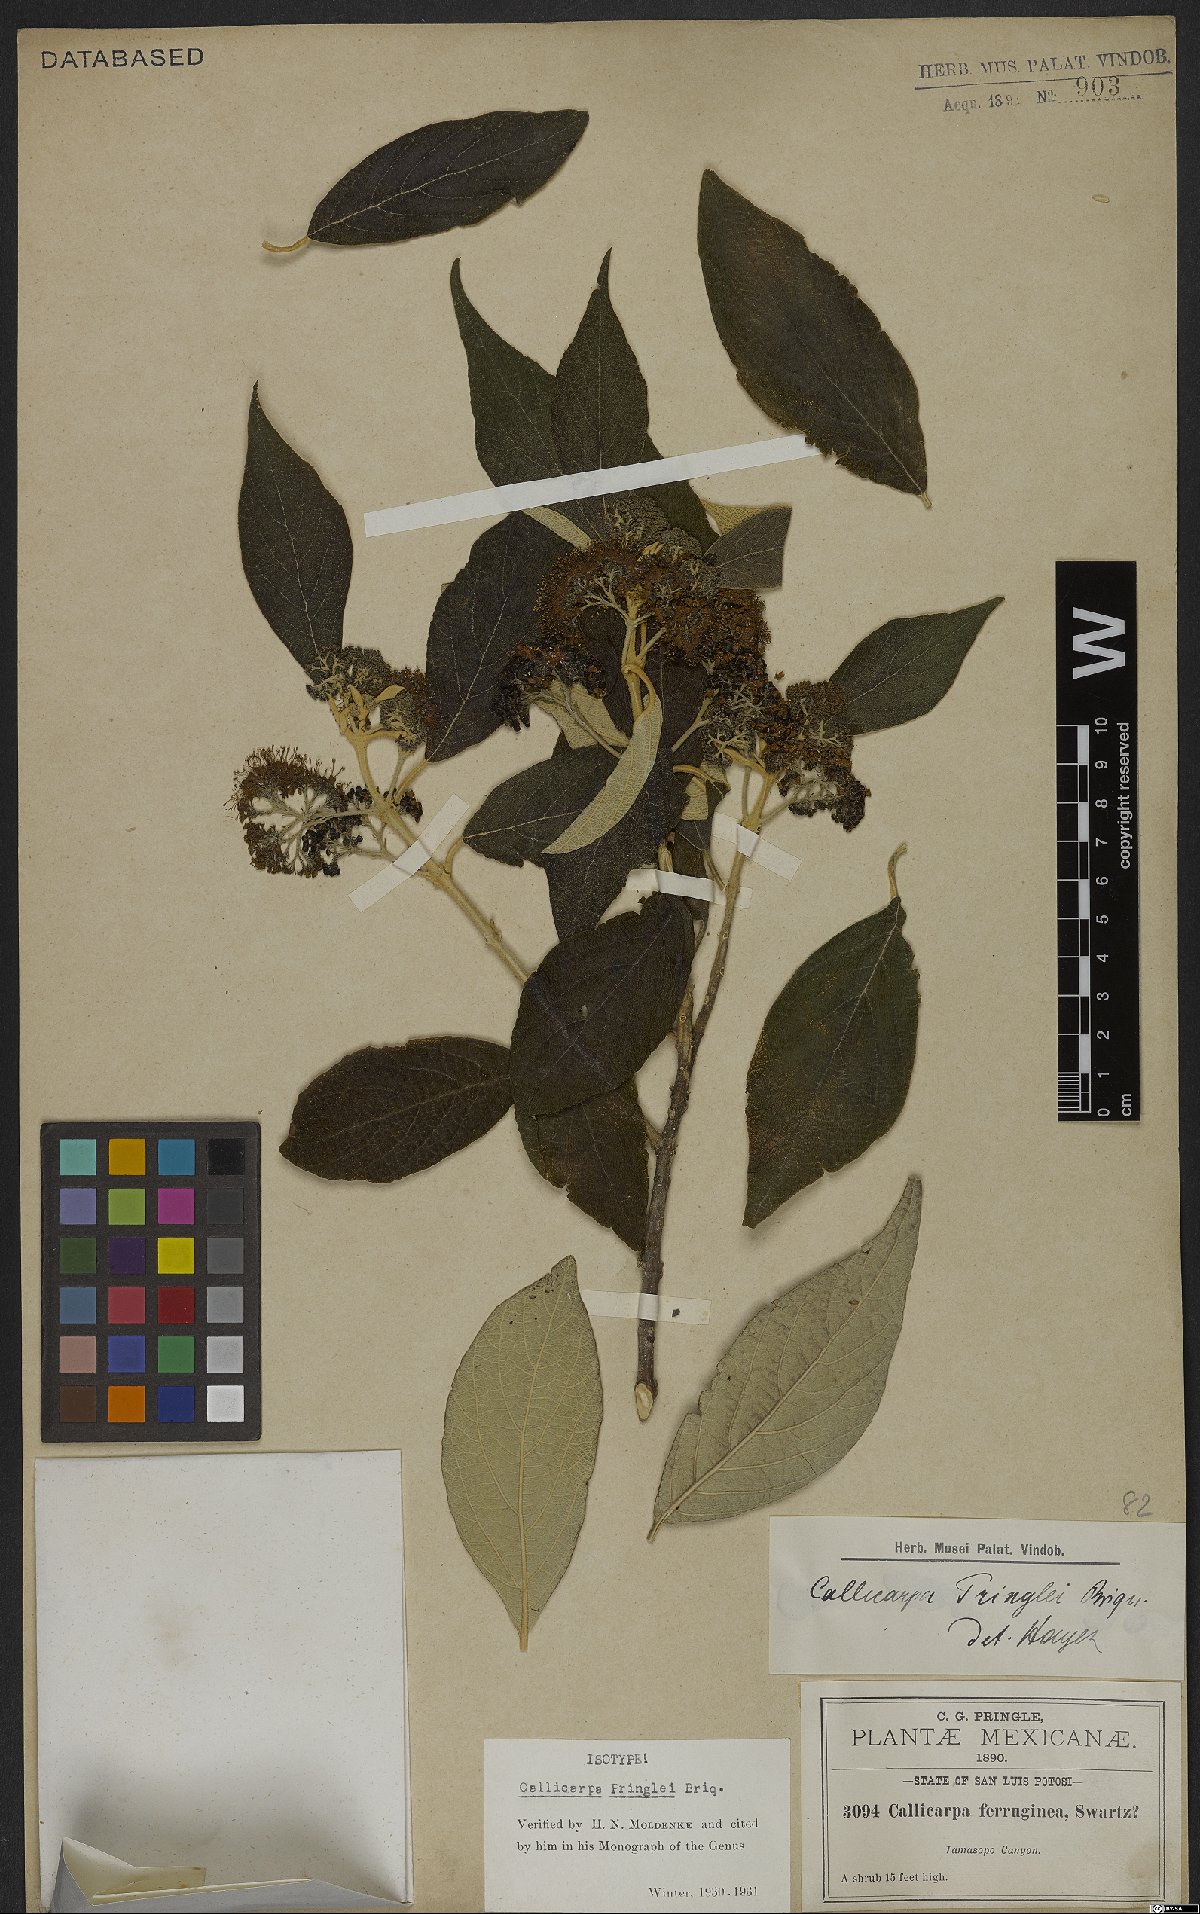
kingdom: Plantae
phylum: Tracheophyta
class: Magnoliopsida
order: Lamiales
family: Lamiaceae
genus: Callicarpa
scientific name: Callicarpa acuminata
